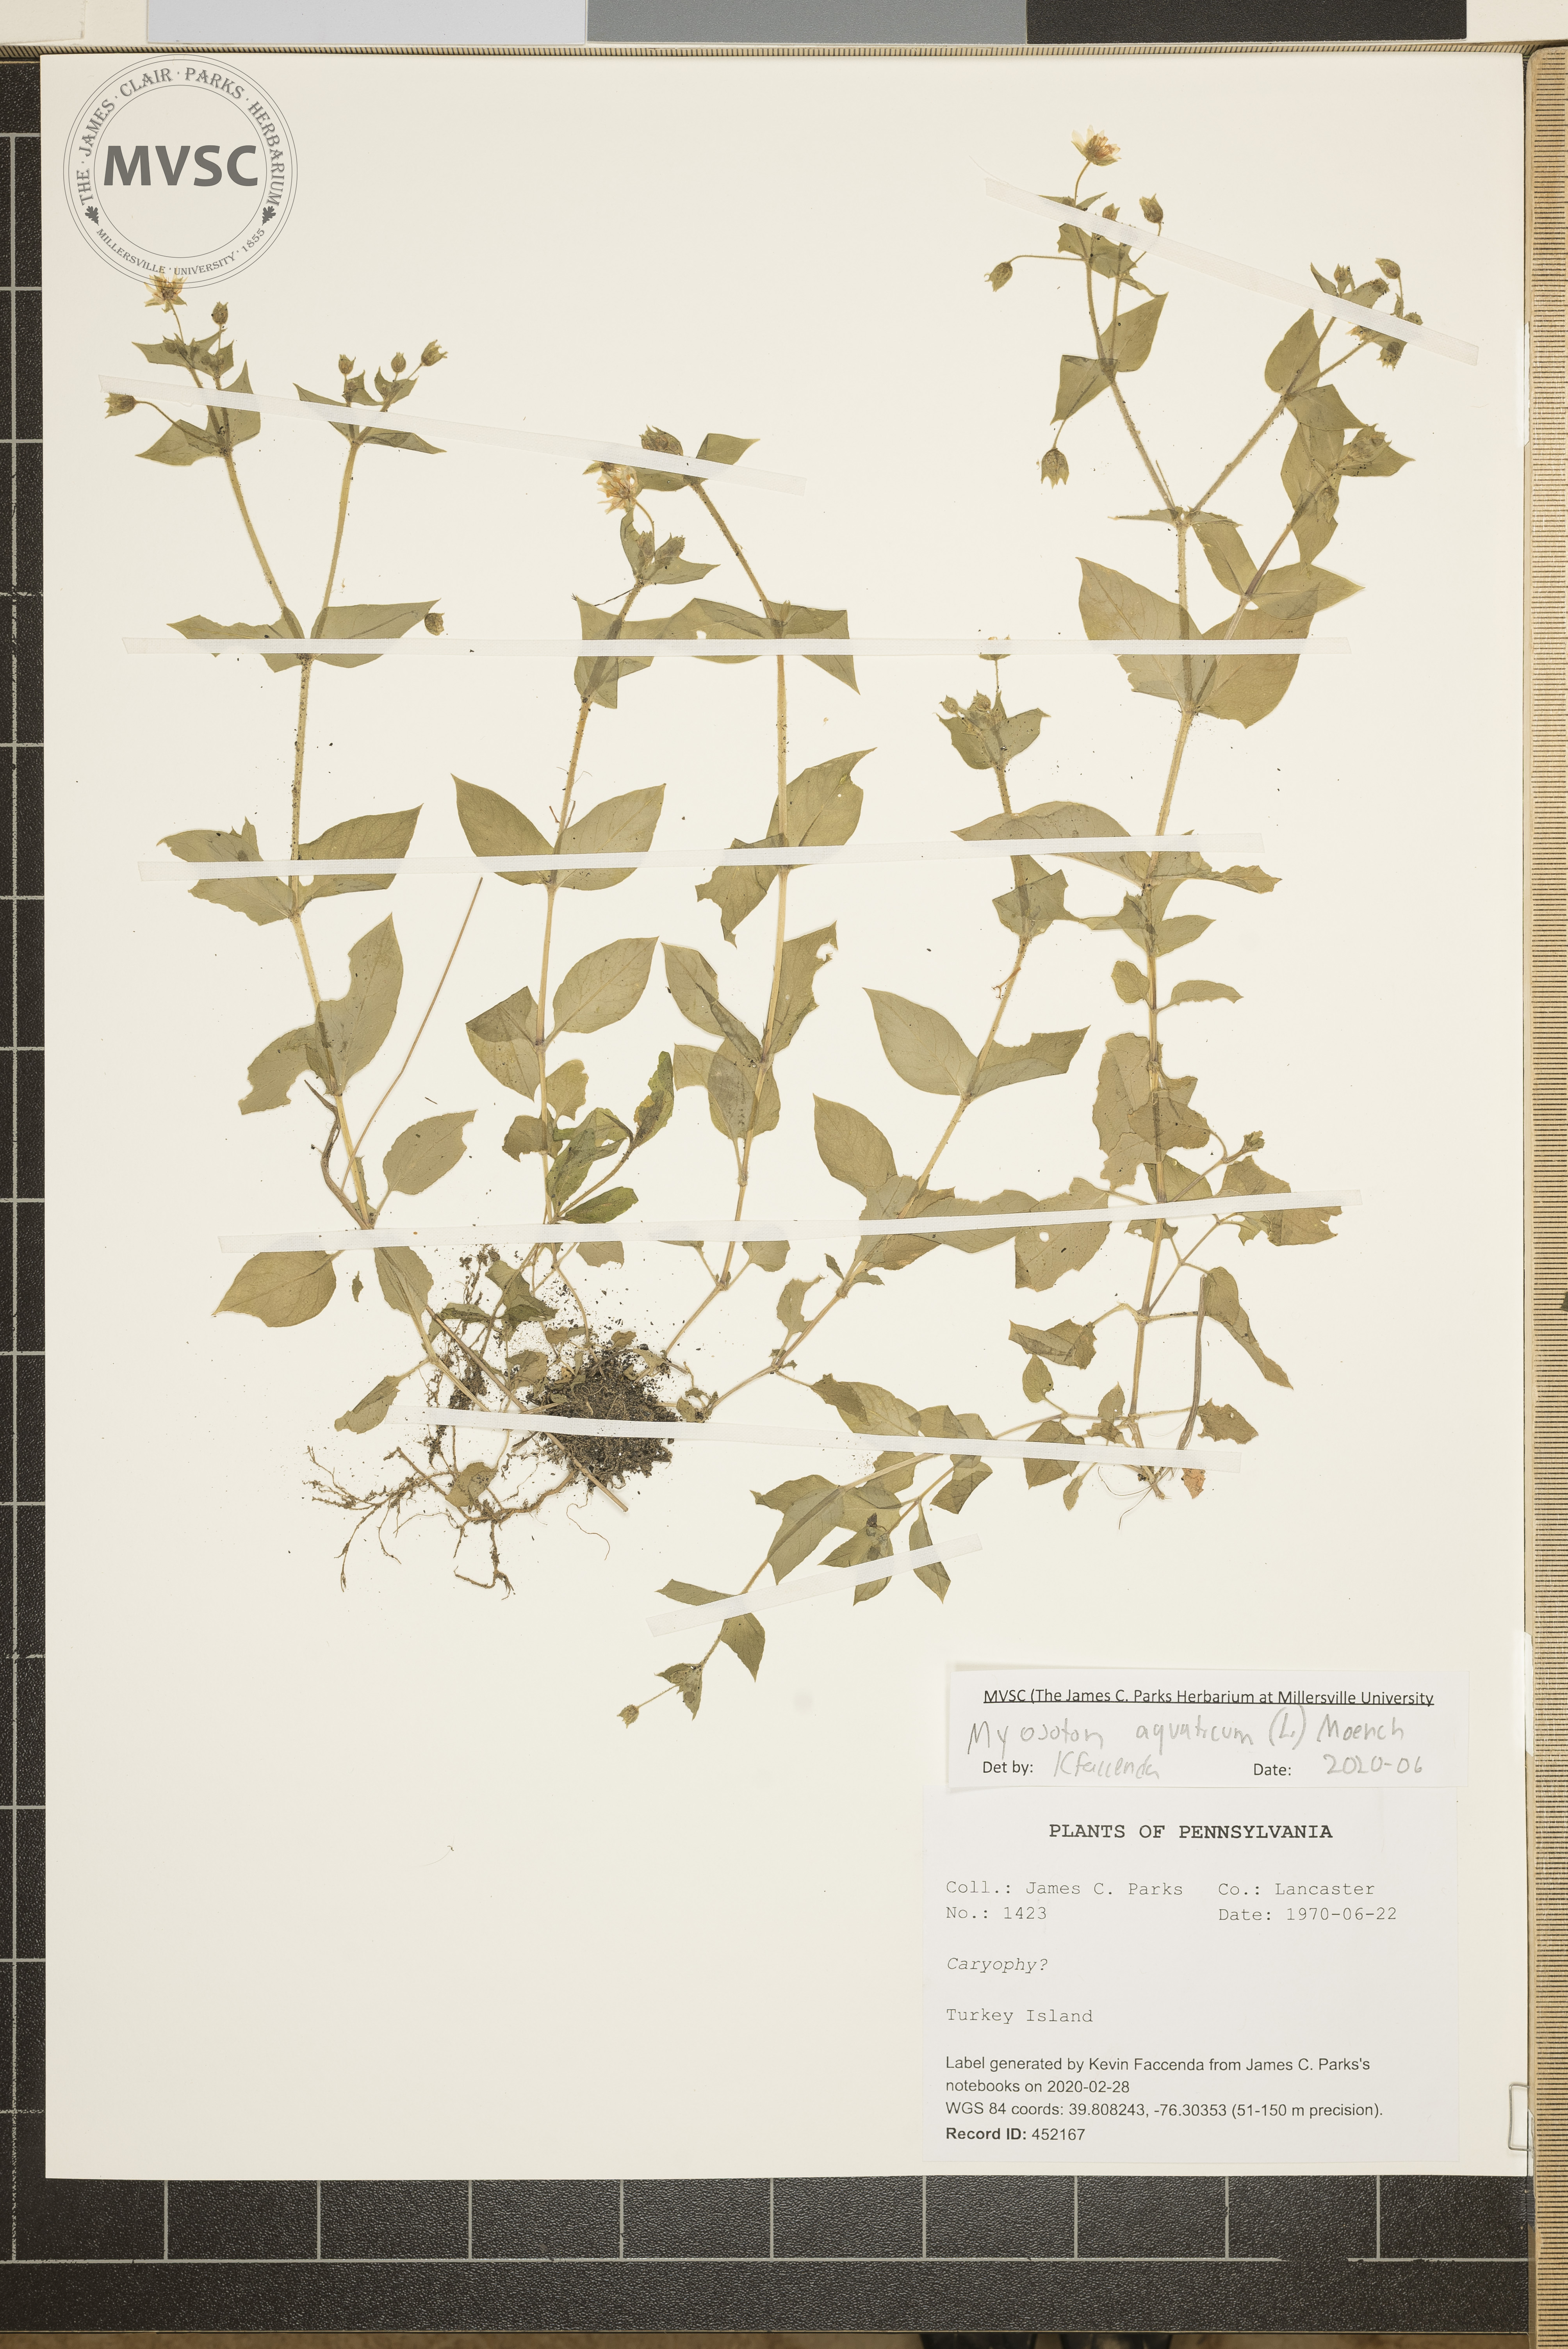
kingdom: Plantae
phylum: Tracheophyta
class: Magnoliopsida
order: Caryophyllales
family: Caryophyllaceae
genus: Stellaria
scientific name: Stellaria aquatica
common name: Water chickweed
